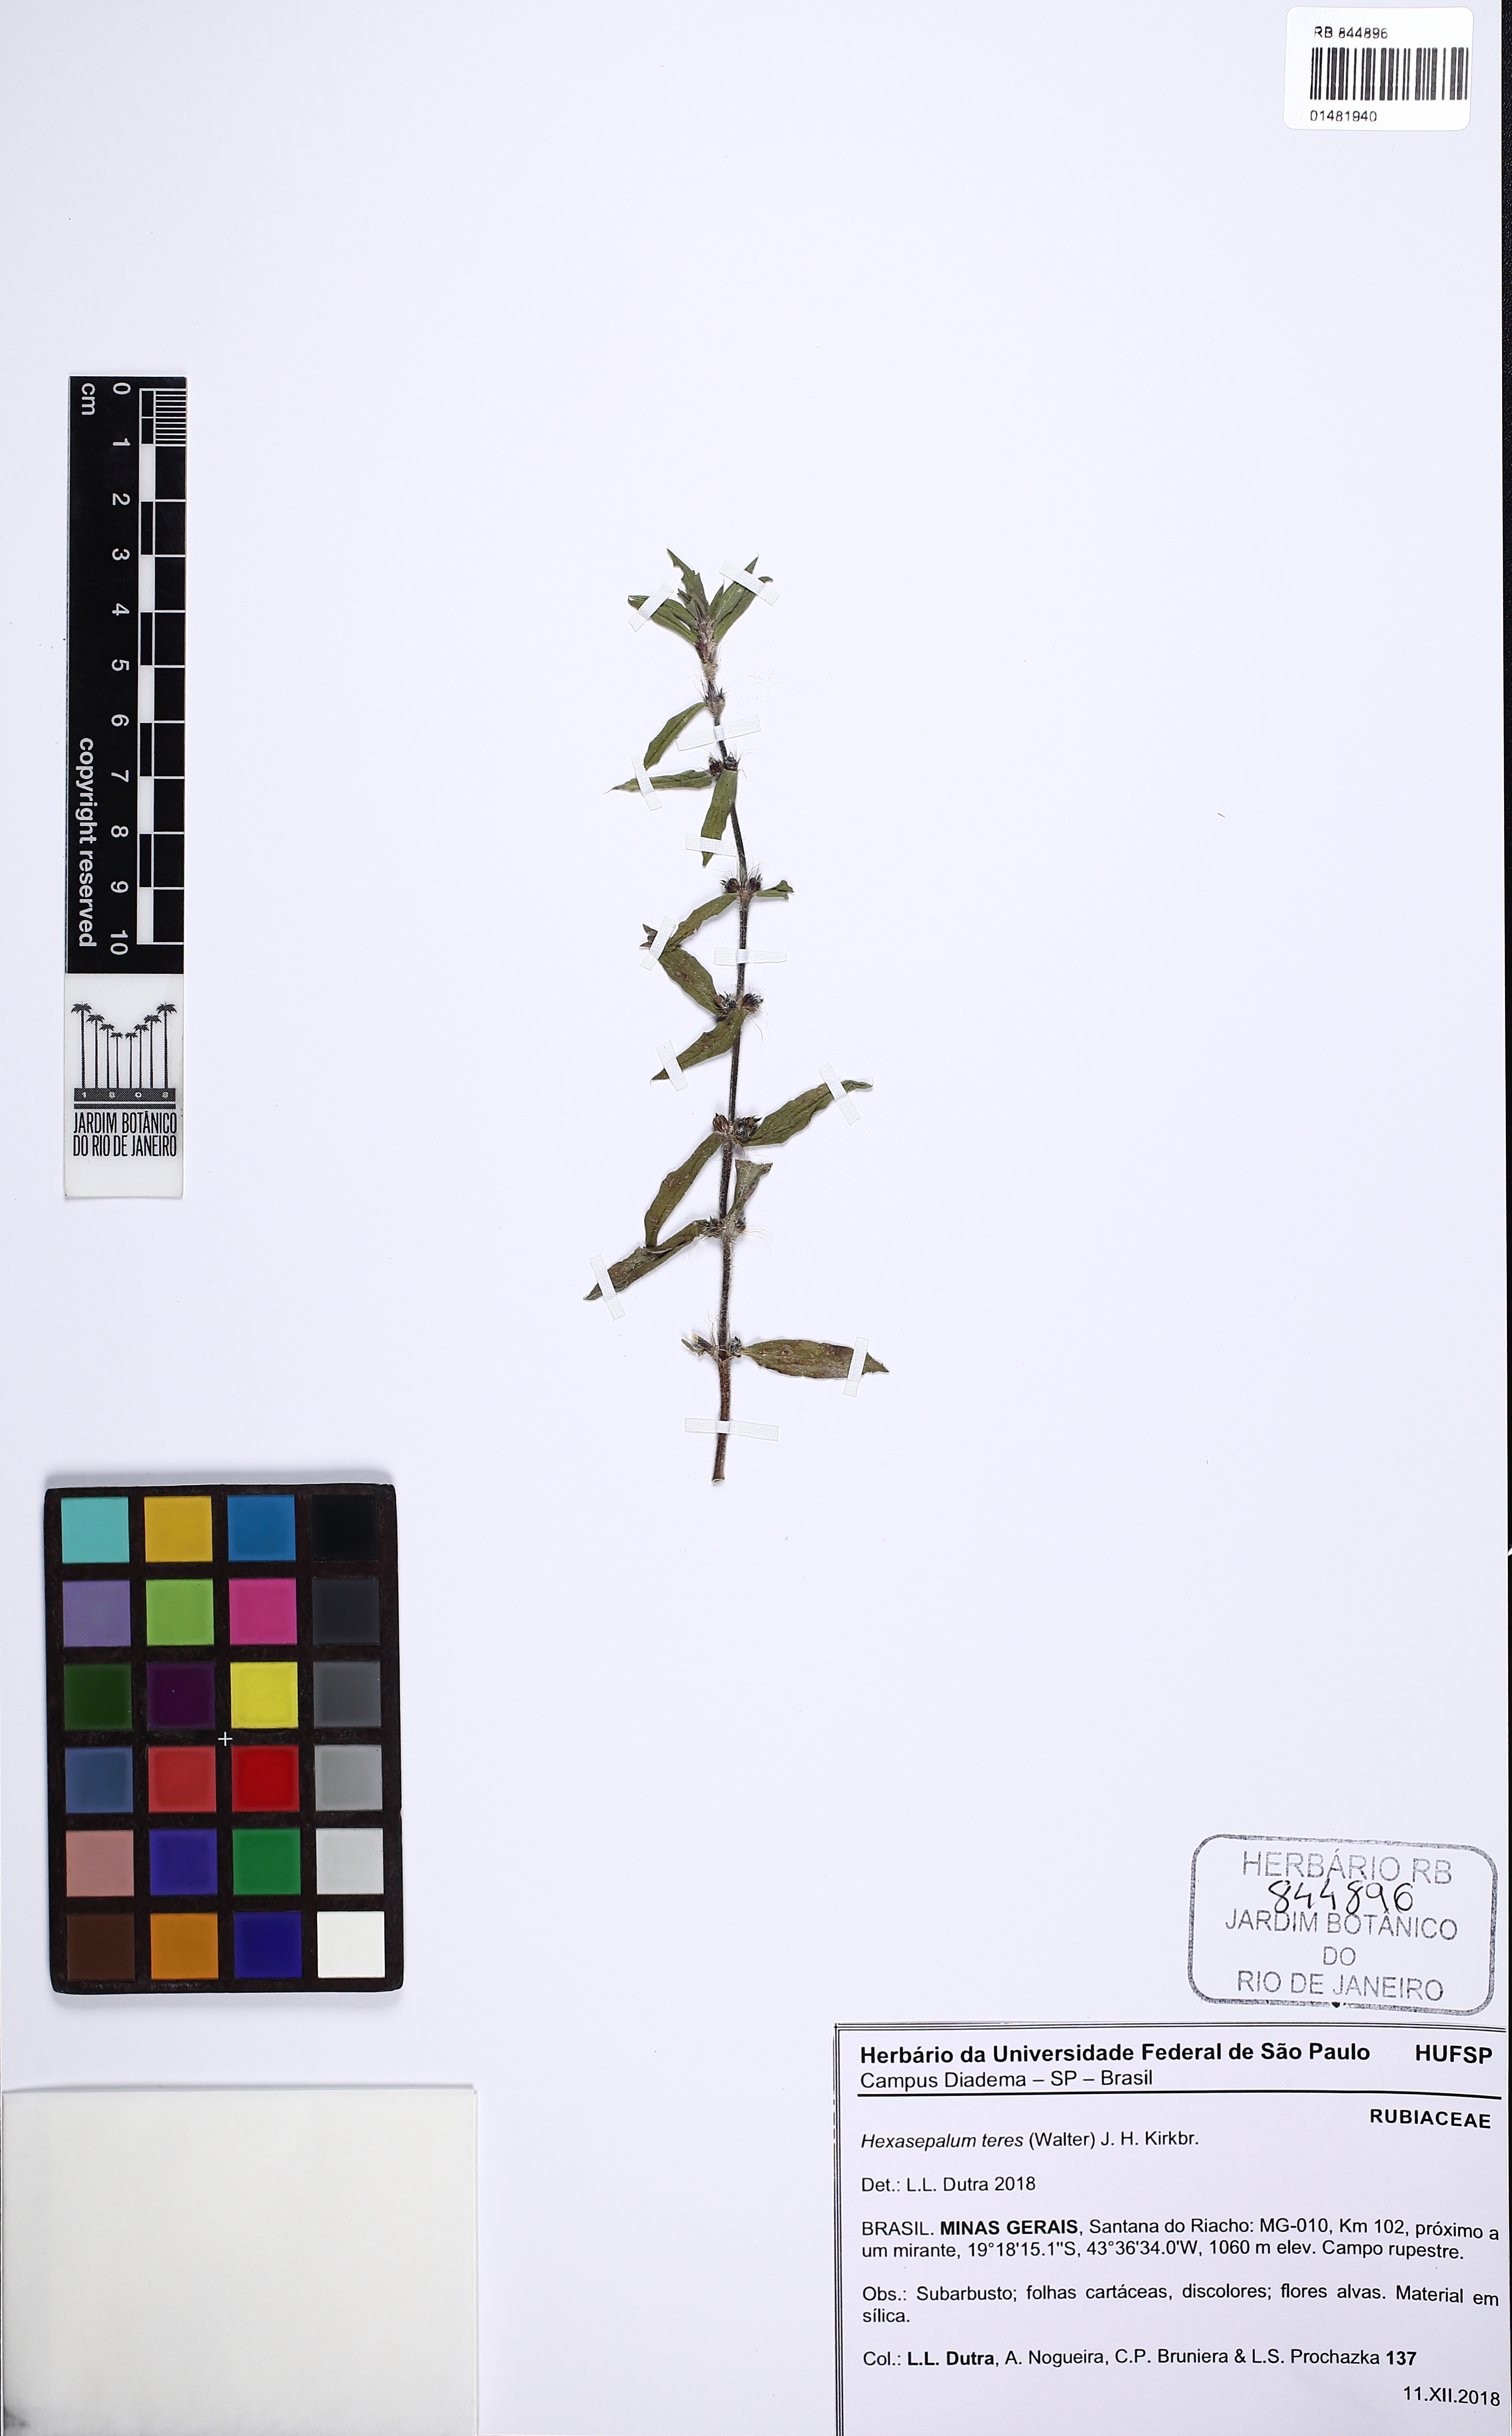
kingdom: Plantae
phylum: Tracheophyta
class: Magnoliopsida
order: Gentianales
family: Rubiaceae
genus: Hexasepalum
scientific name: Hexasepalum teres
